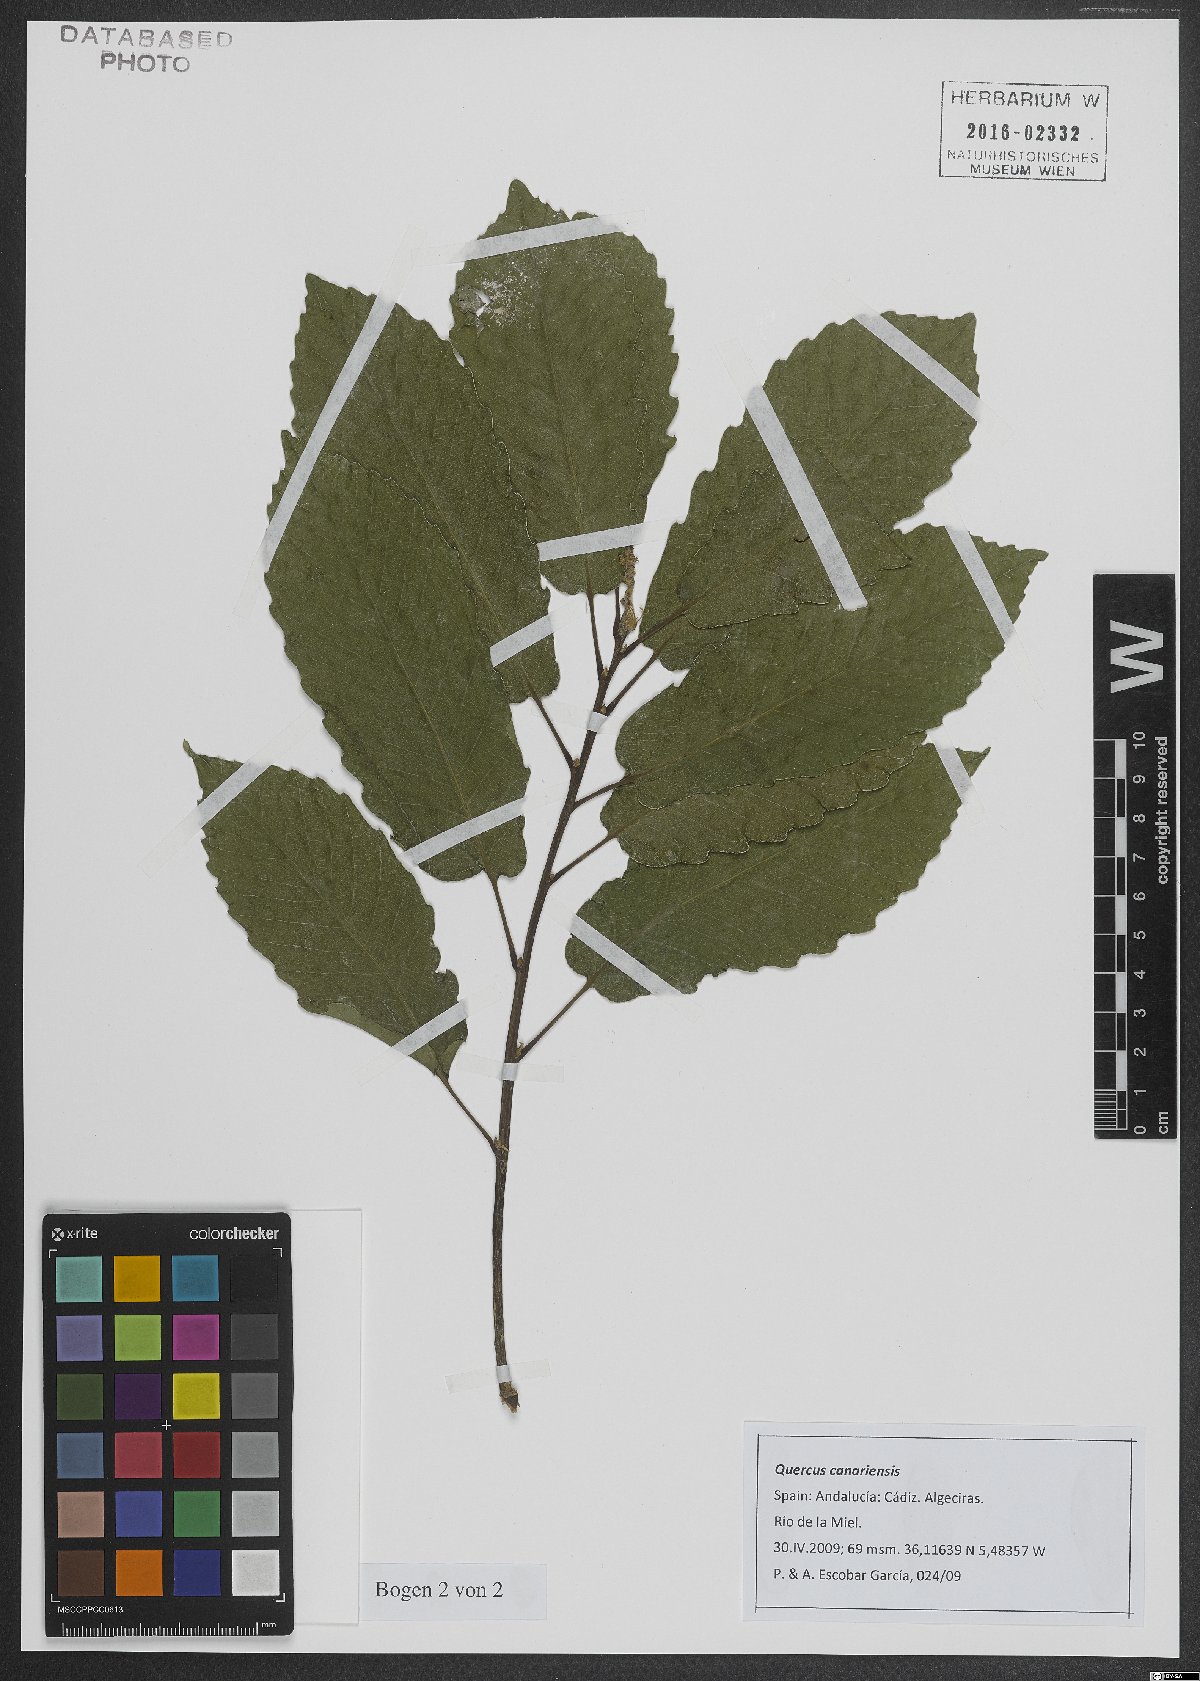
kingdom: Plantae
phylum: Tracheophyta
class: Magnoliopsida
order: Fagales
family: Fagaceae
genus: Quercus
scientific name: Quercus canariensis
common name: Algerian oak
